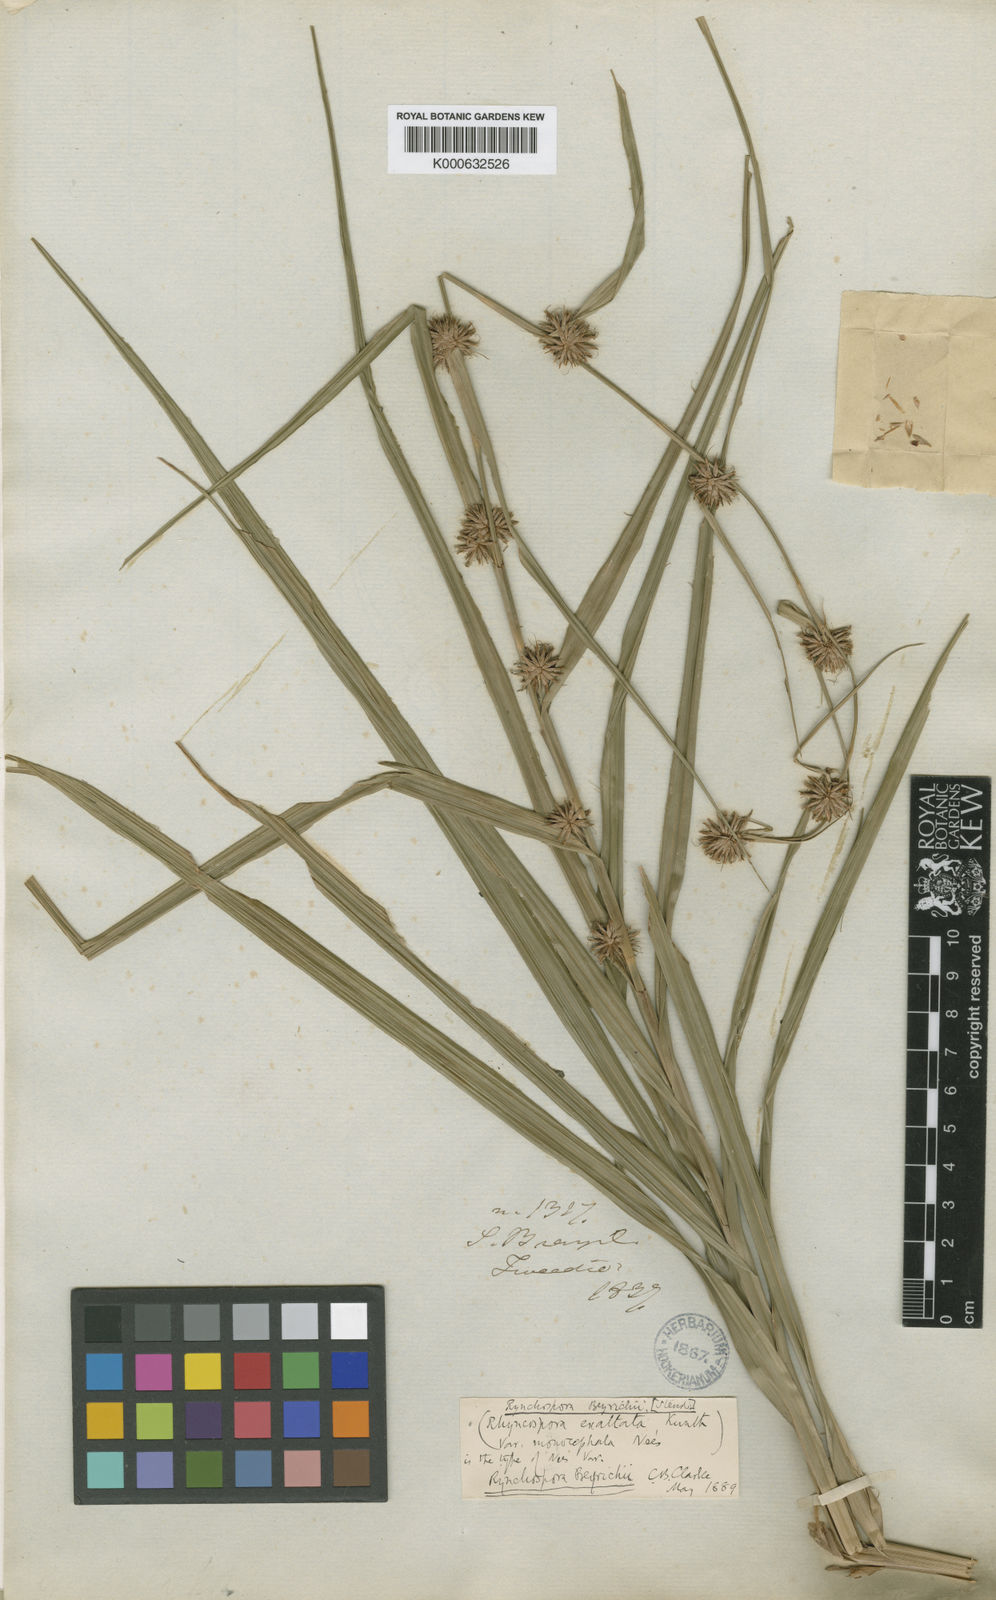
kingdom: Plantae
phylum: Tracheophyta
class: Liliopsida
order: Poales
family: Cyperaceae
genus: Rhynchospora
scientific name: Rhynchospora macrostachya
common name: Tall beakrush
